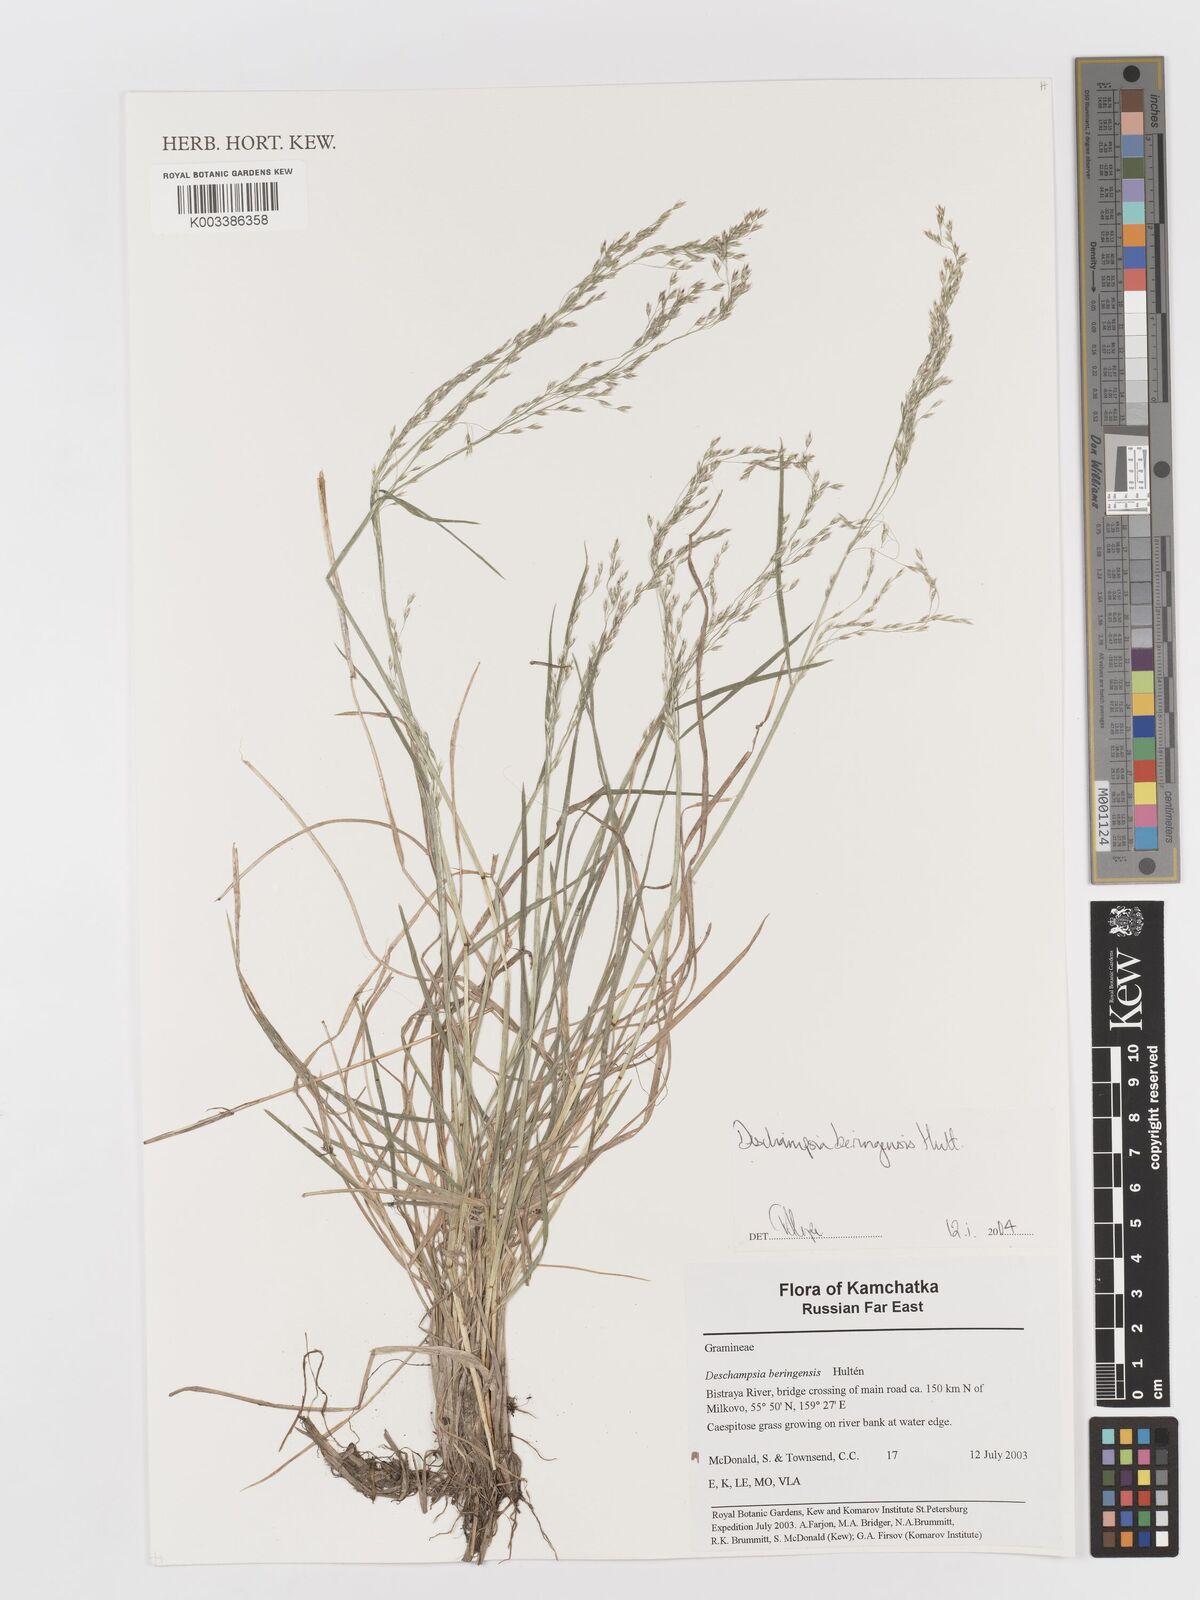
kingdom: Plantae
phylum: Tracheophyta
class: Liliopsida
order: Poales
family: Poaceae
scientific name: Poaceae
